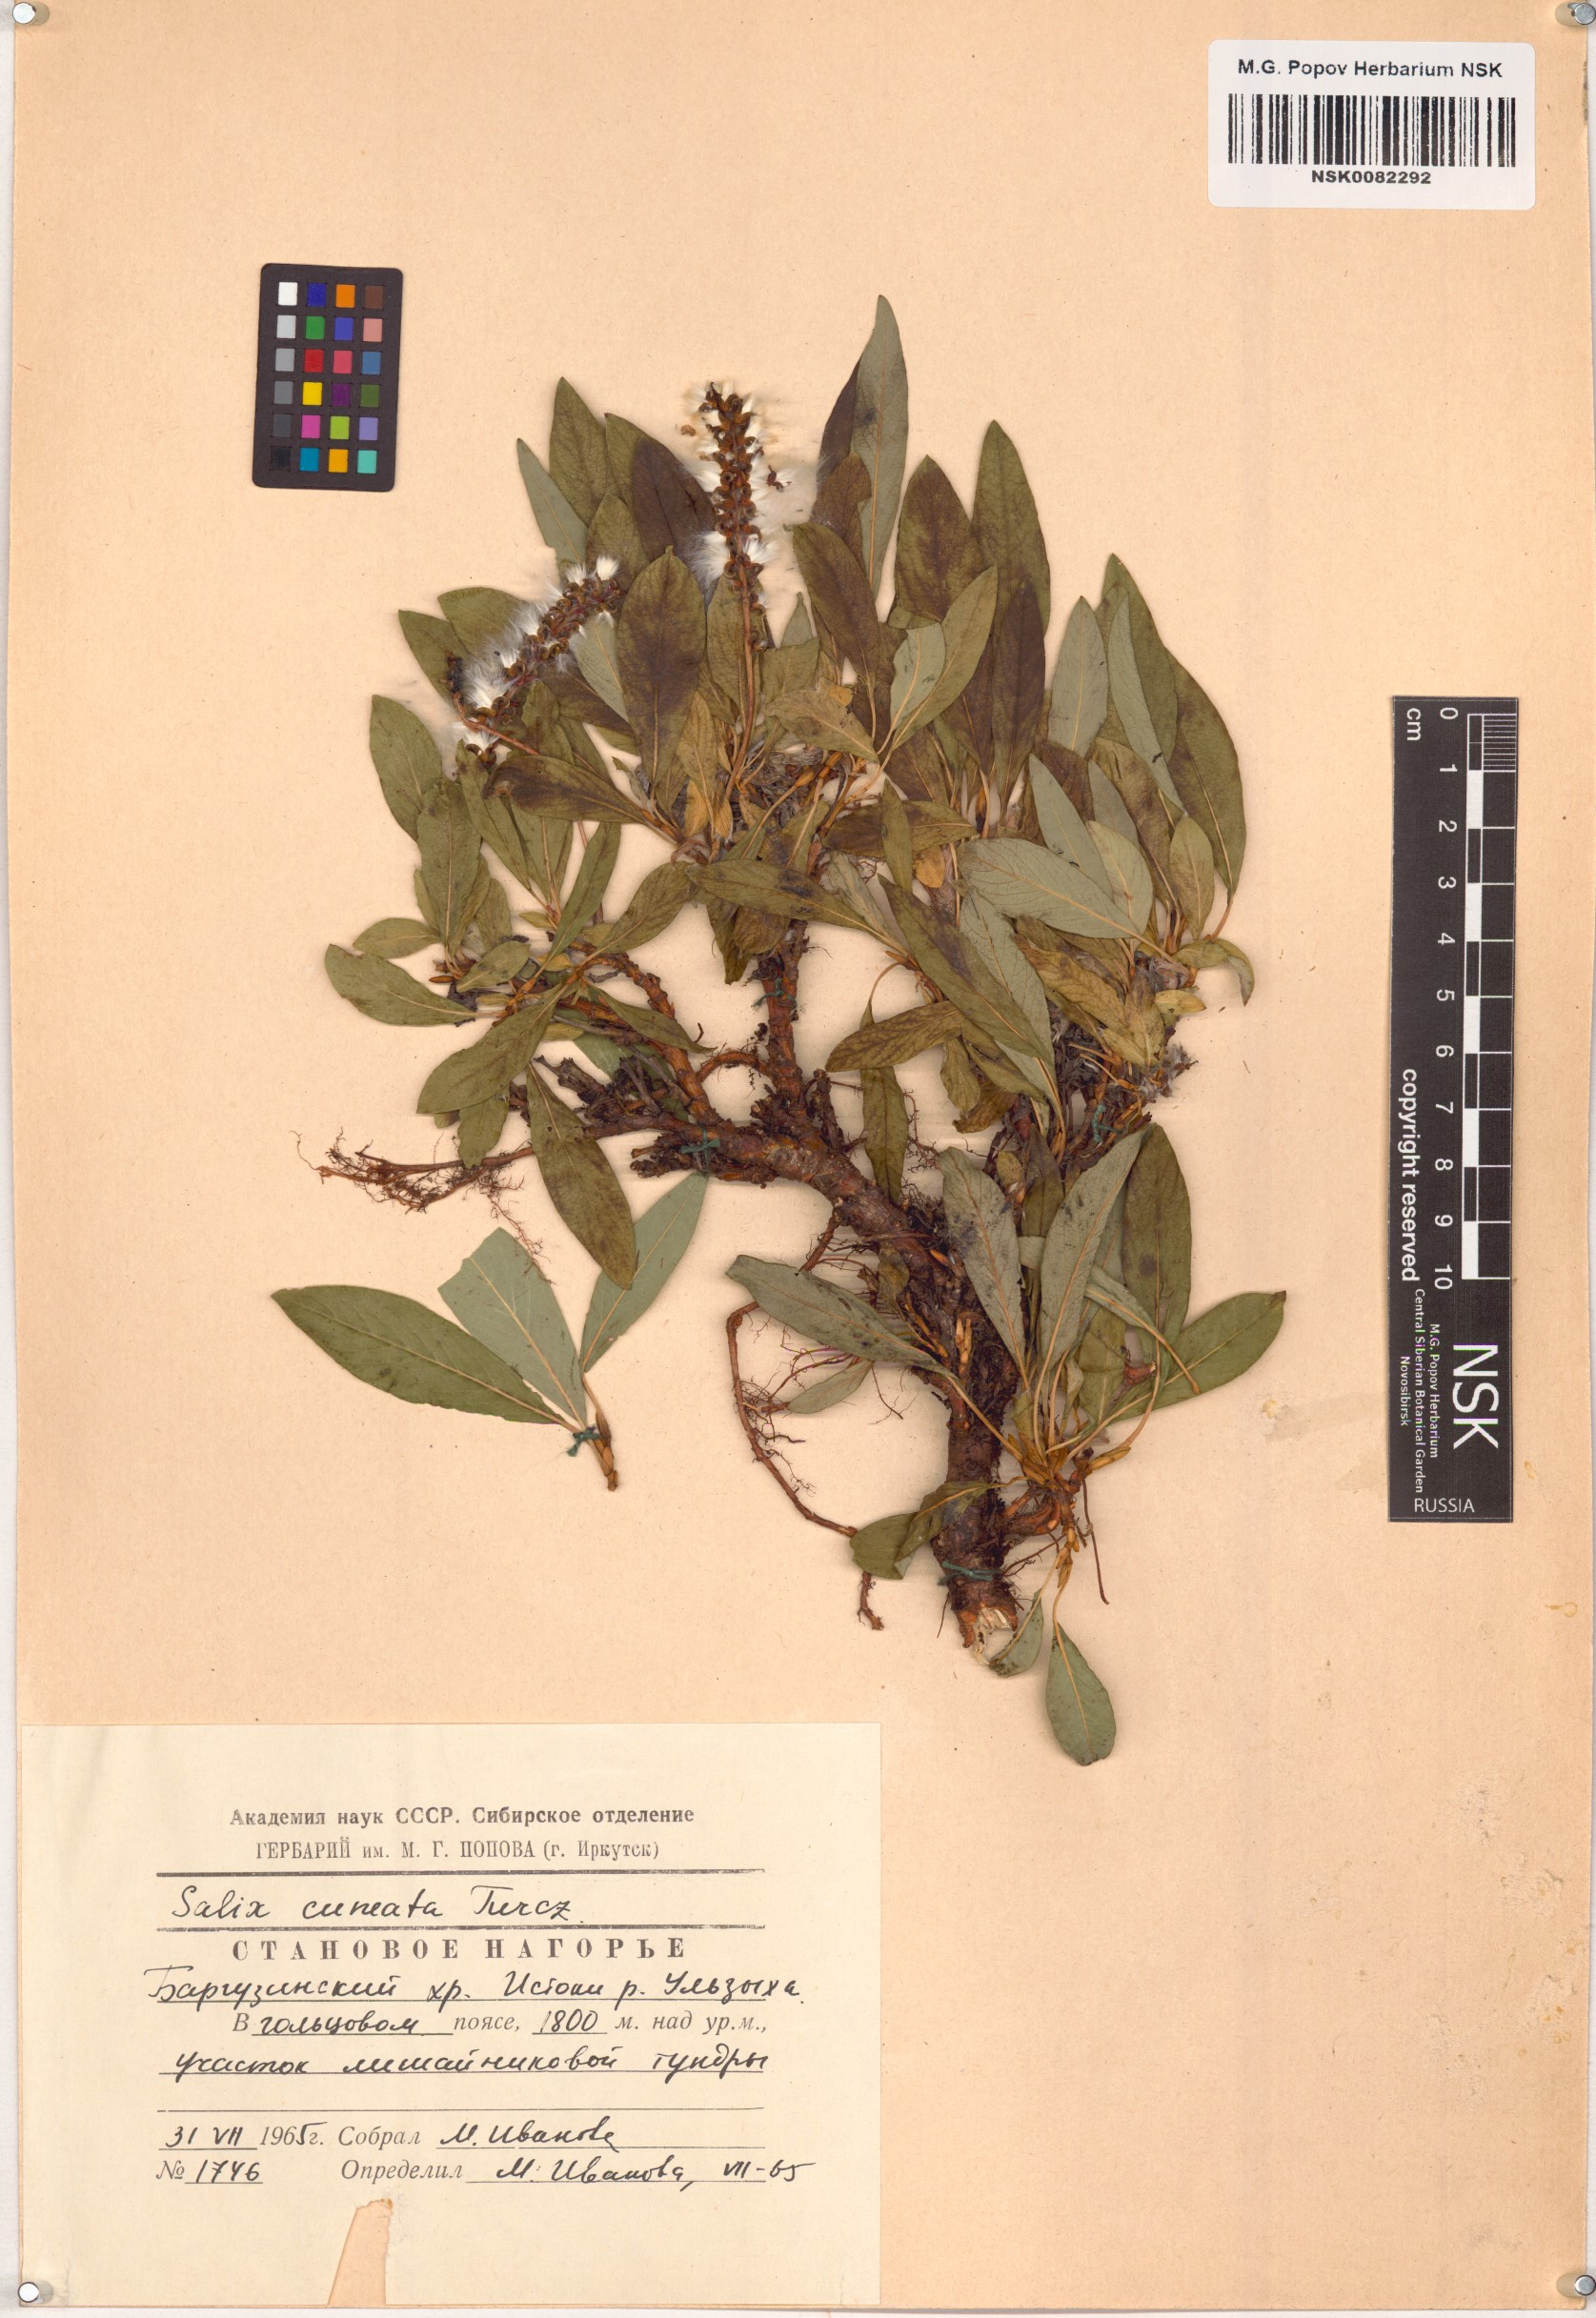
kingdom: Plantae
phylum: Tracheophyta
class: Magnoliopsida
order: Malpighiales
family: Salicaceae
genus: Salix
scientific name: Salix sphenophylla
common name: Wedge-leaved willow
